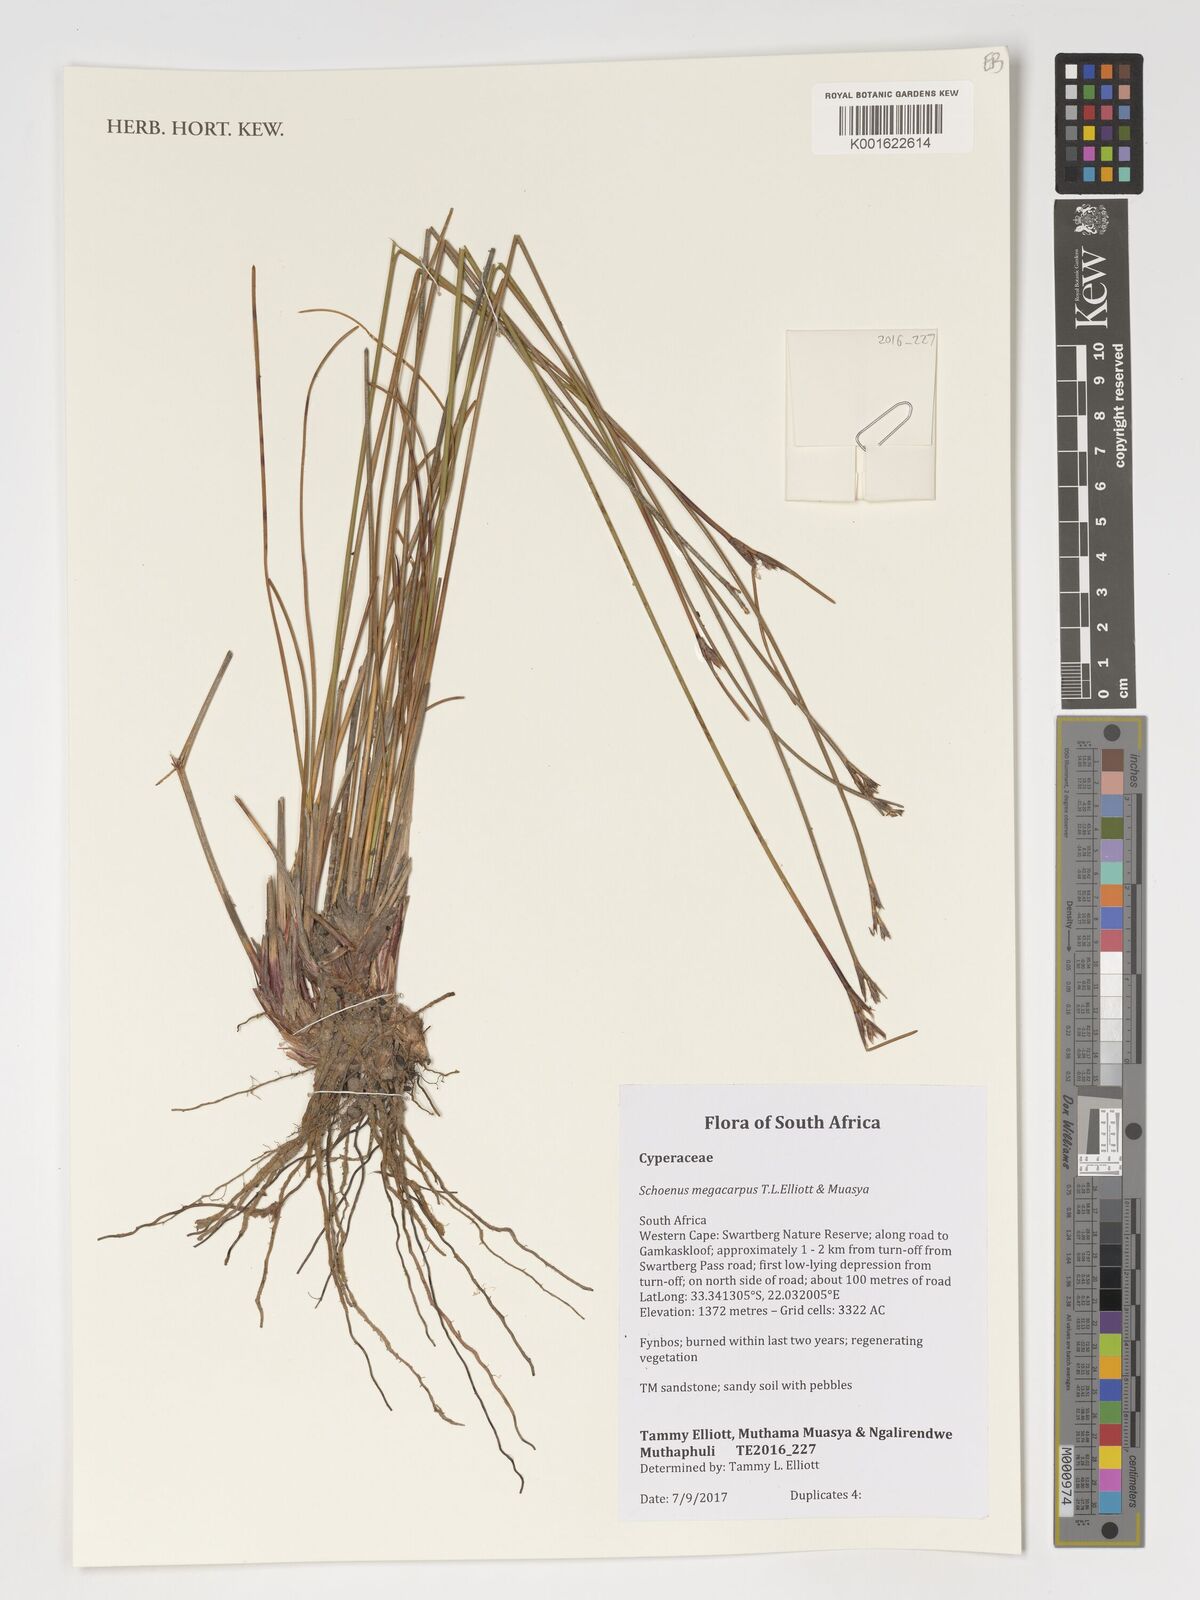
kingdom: Plantae
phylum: Tracheophyta
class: Liliopsida
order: Poales
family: Cyperaceae
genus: Schoenus
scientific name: Schoenus megacarpus
